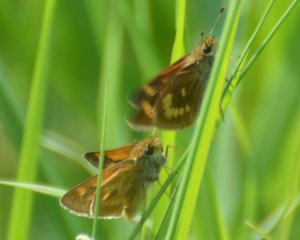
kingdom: Animalia
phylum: Arthropoda
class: Insecta
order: Lepidoptera
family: Hesperiidae
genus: Polites
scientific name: Polites
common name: Long Dash Skipper
